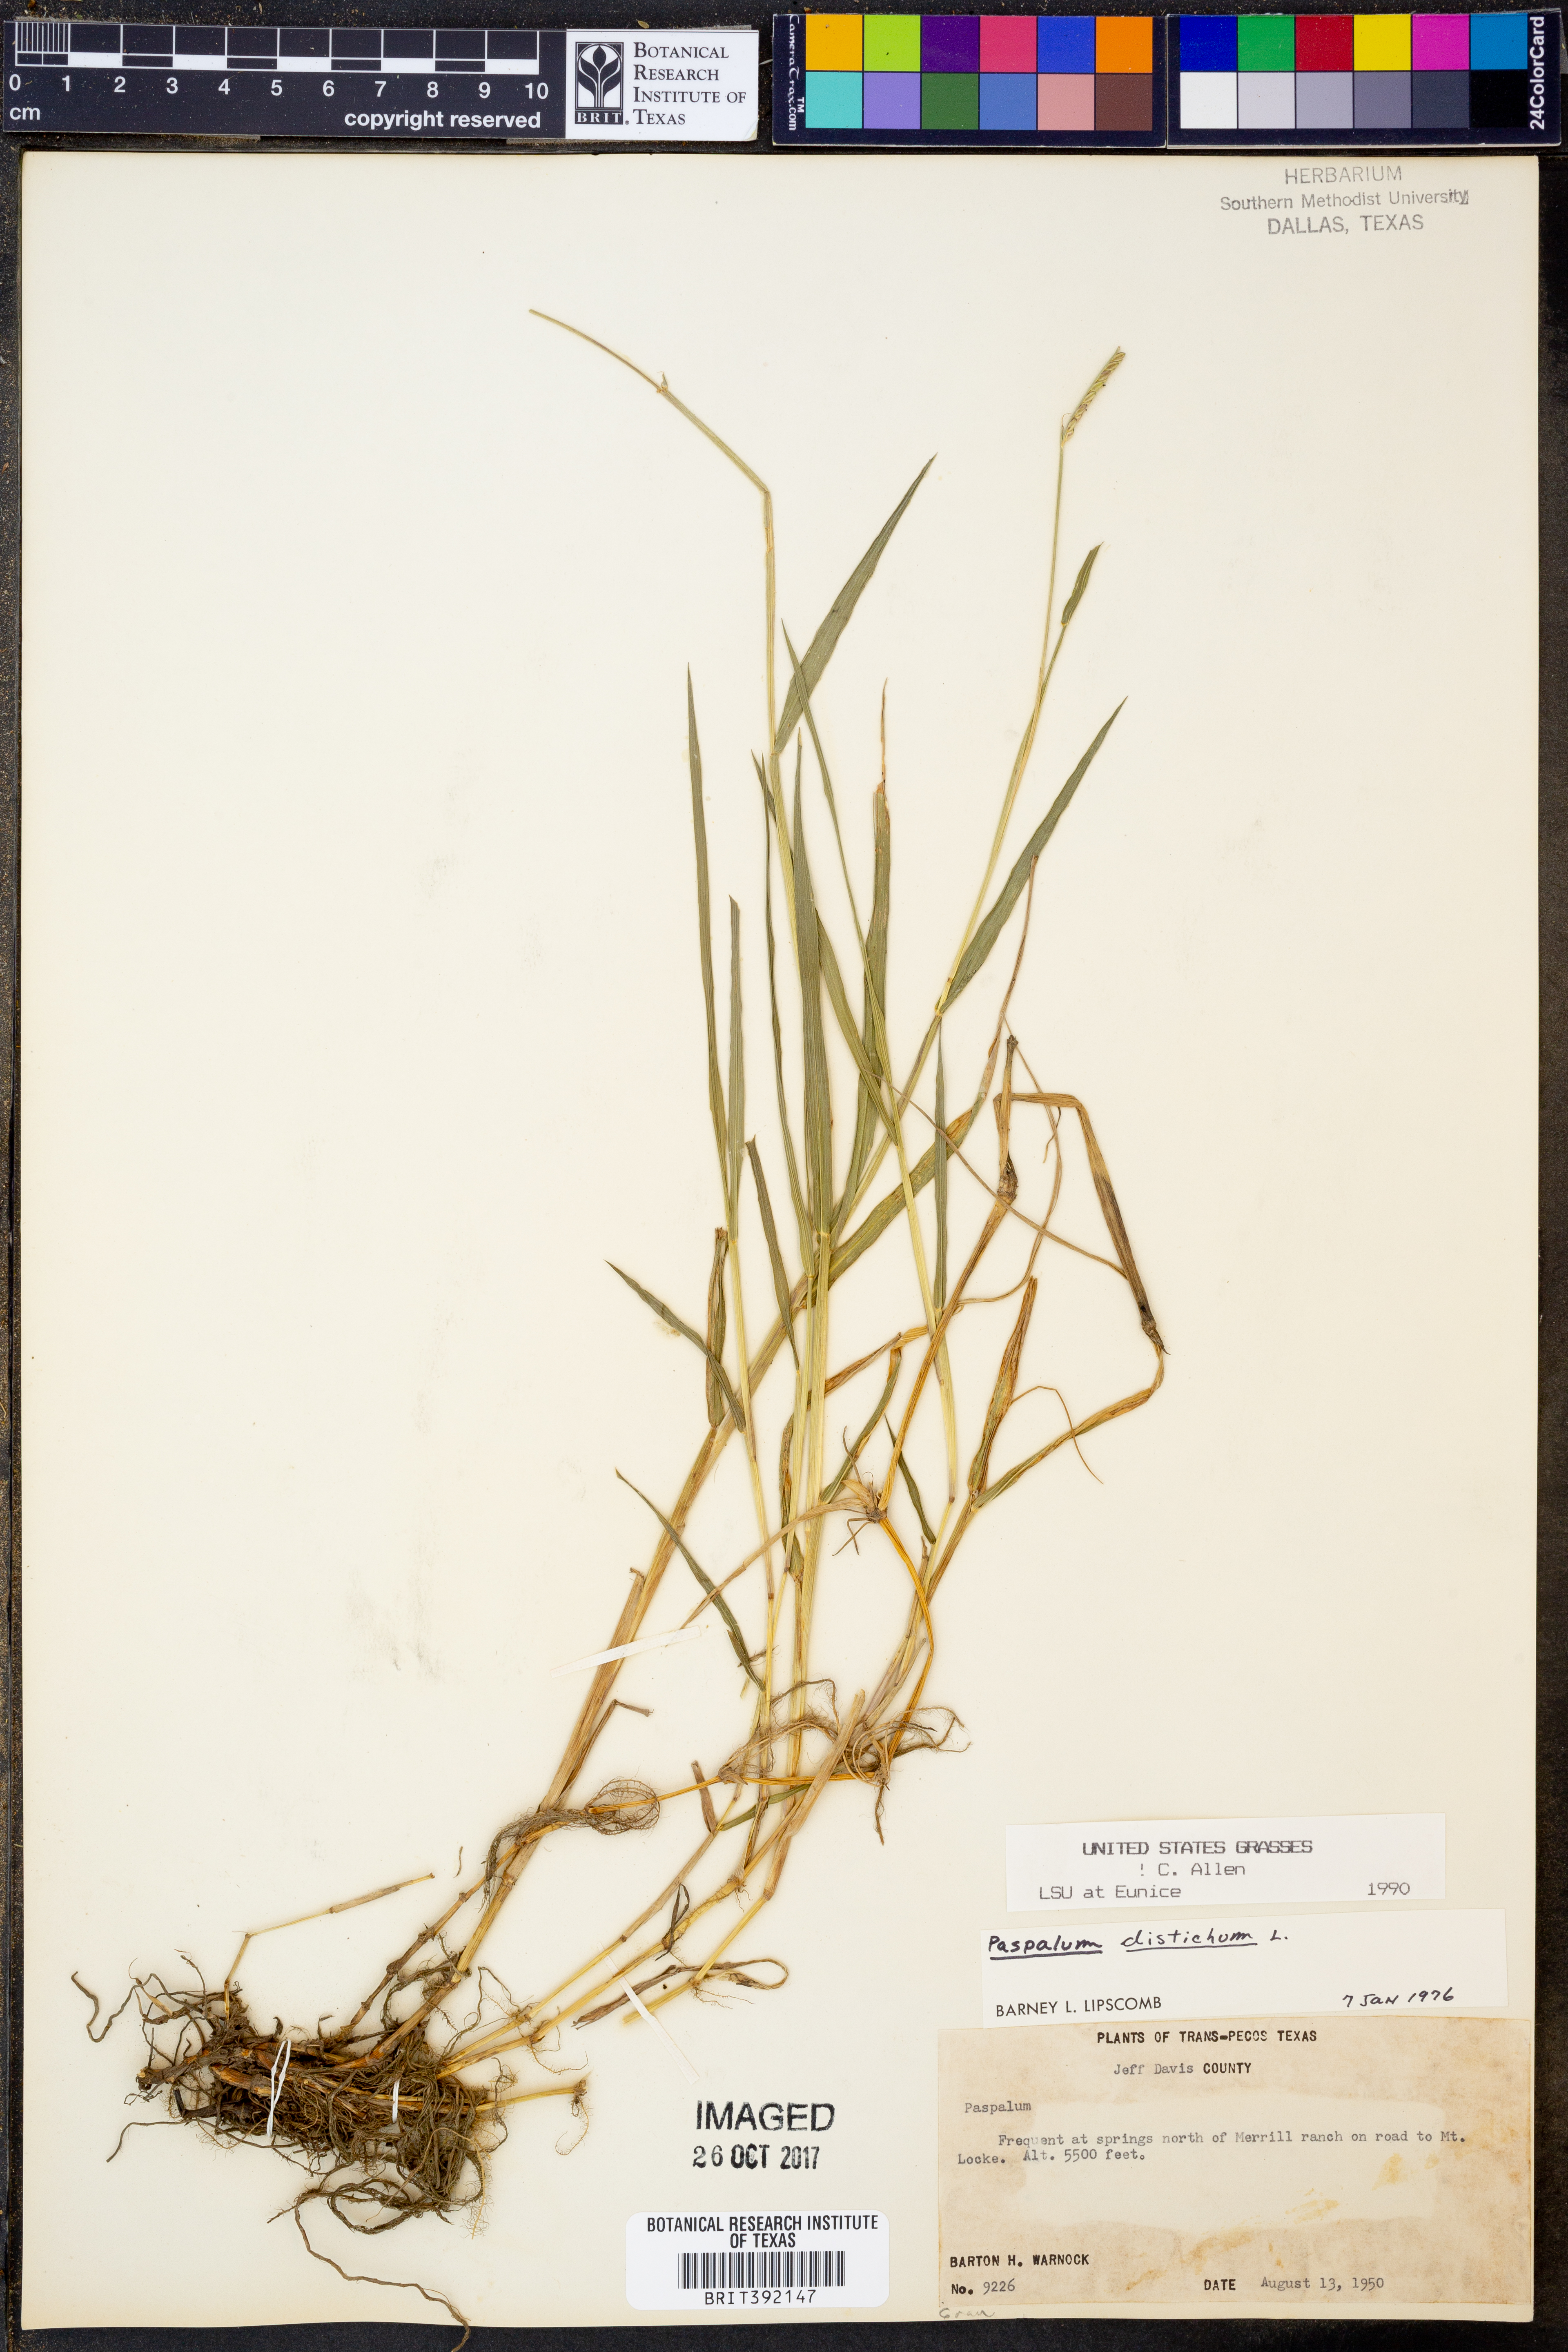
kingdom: Plantae
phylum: Tracheophyta
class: Liliopsida
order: Poales
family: Poaceae
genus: Paspalum
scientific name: Paspalum distichum
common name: Knotgrass
